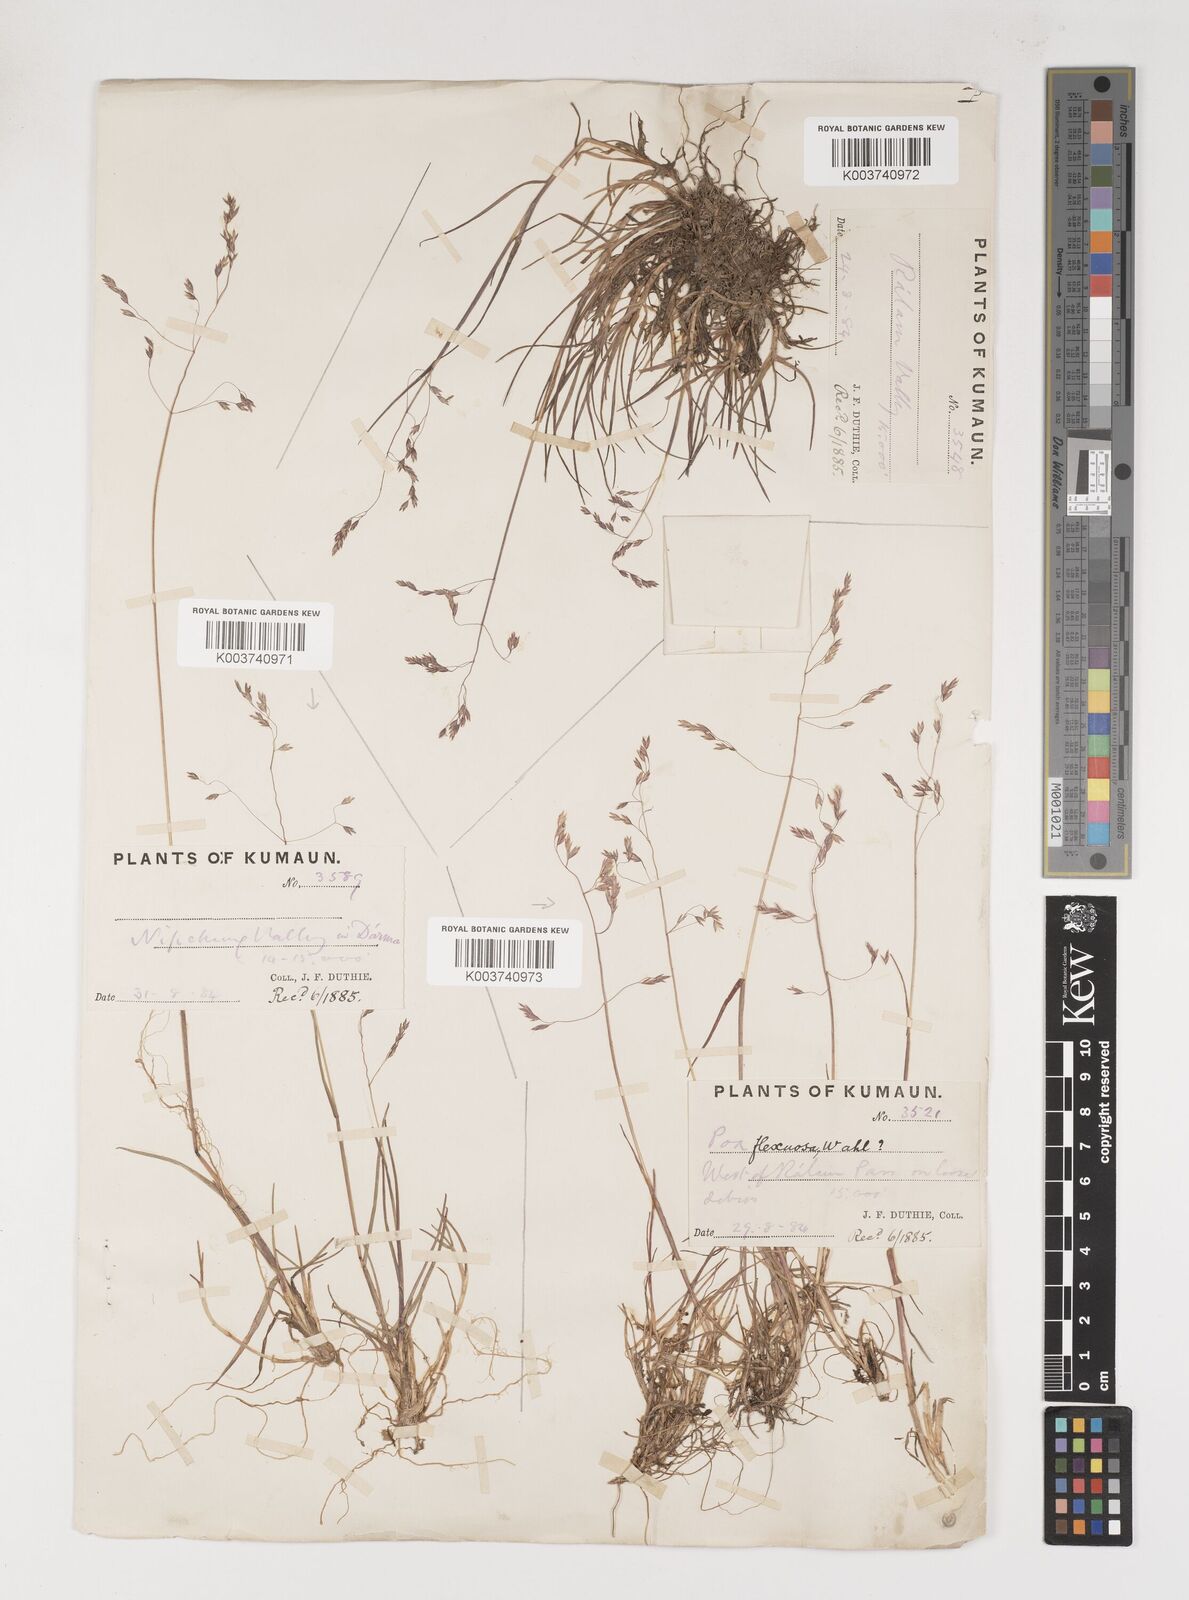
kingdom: Plantae
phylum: Tracheophyta
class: Liliopsida
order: Poales
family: Poaceae
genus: Poa
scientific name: Poa pagophila
